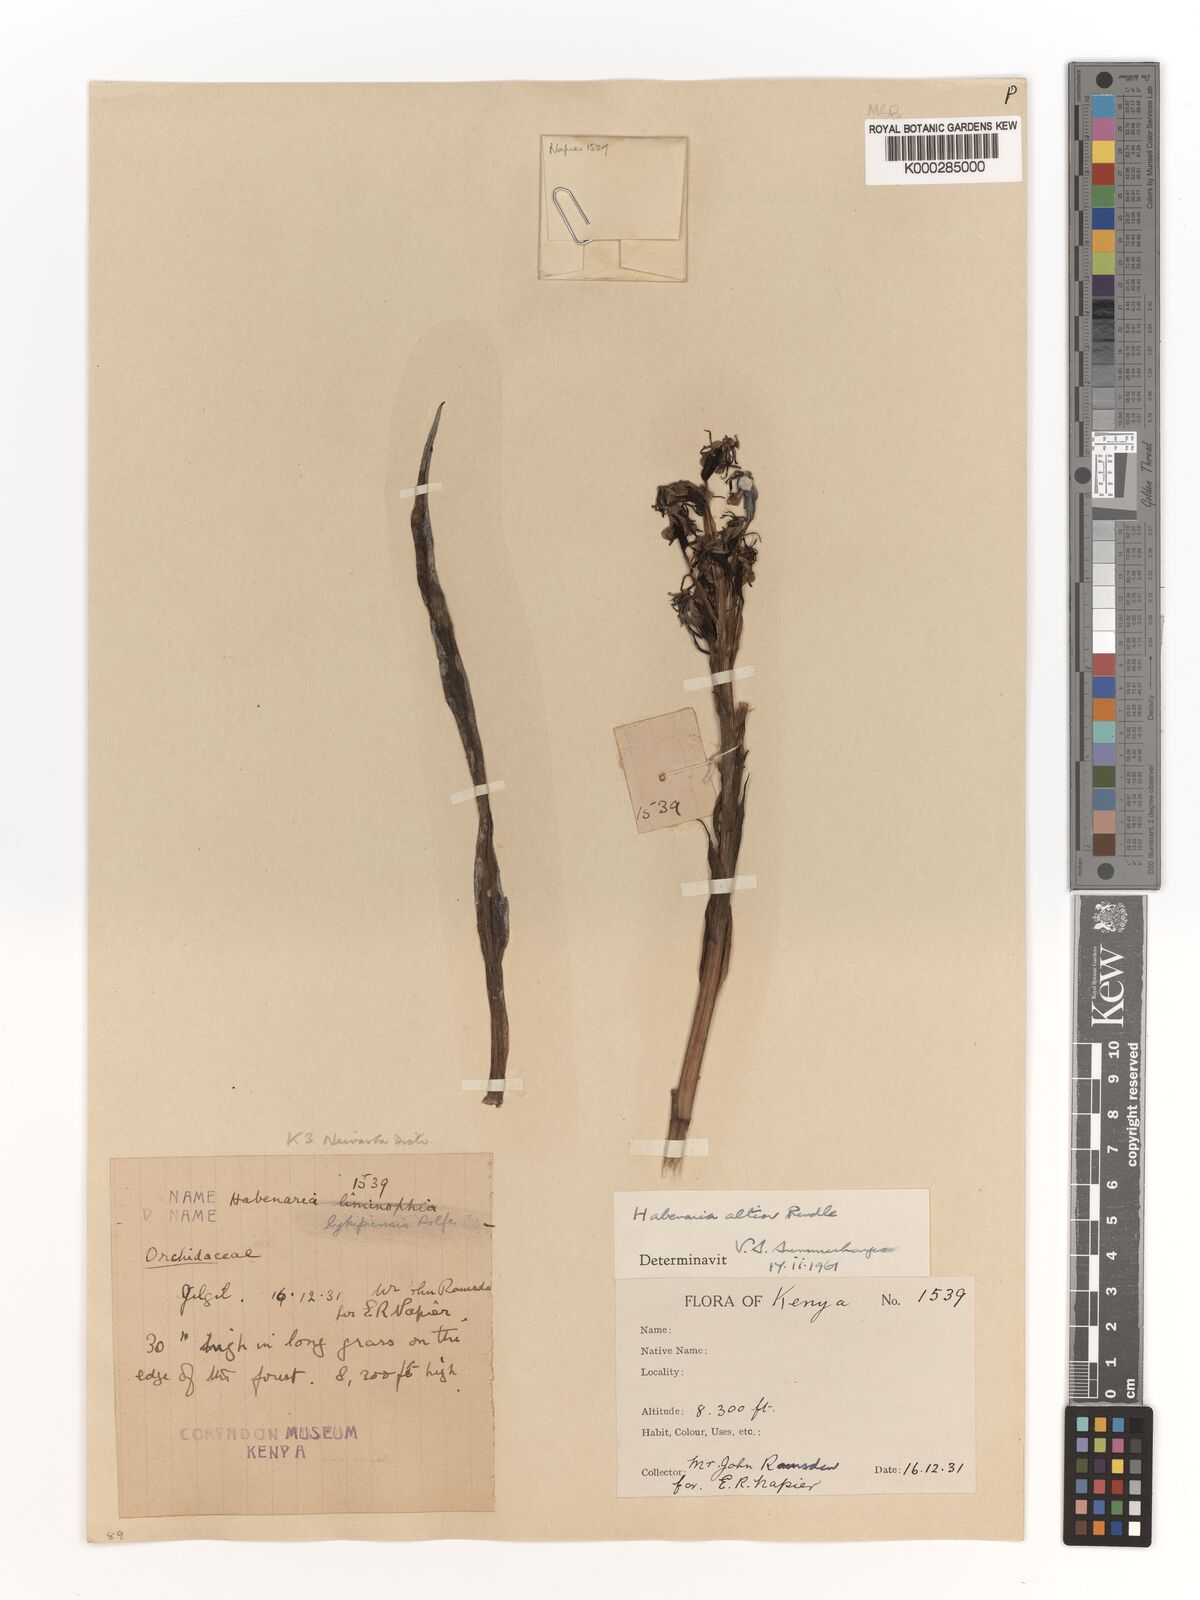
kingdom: Plantae
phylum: Tracheophyta
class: Liliopsida
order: Asparagales
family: Orchidaceae
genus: Habenaria
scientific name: Habenaria altior
